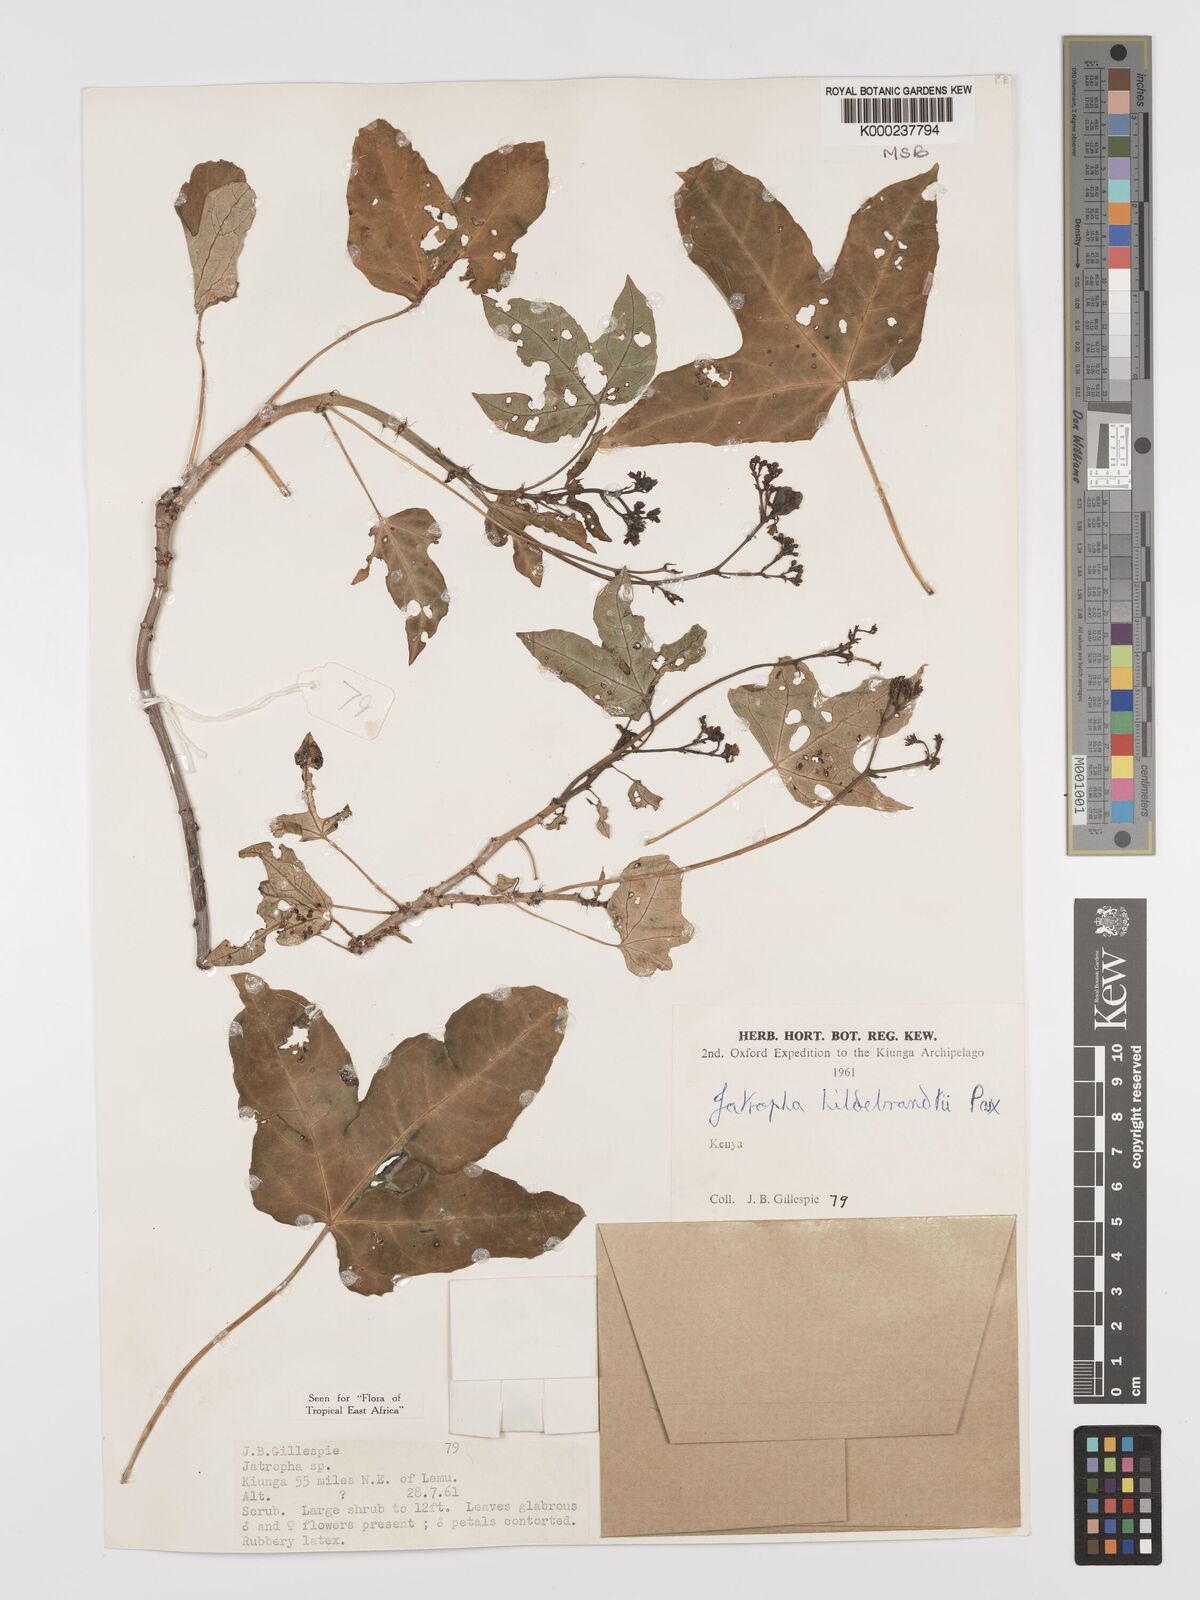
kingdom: Plantae
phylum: Tracheophyta
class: Magnoliopsida
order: Malpighiales
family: Euphorbiaceae
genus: Jatropha
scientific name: Jatropha hildebrandtii
